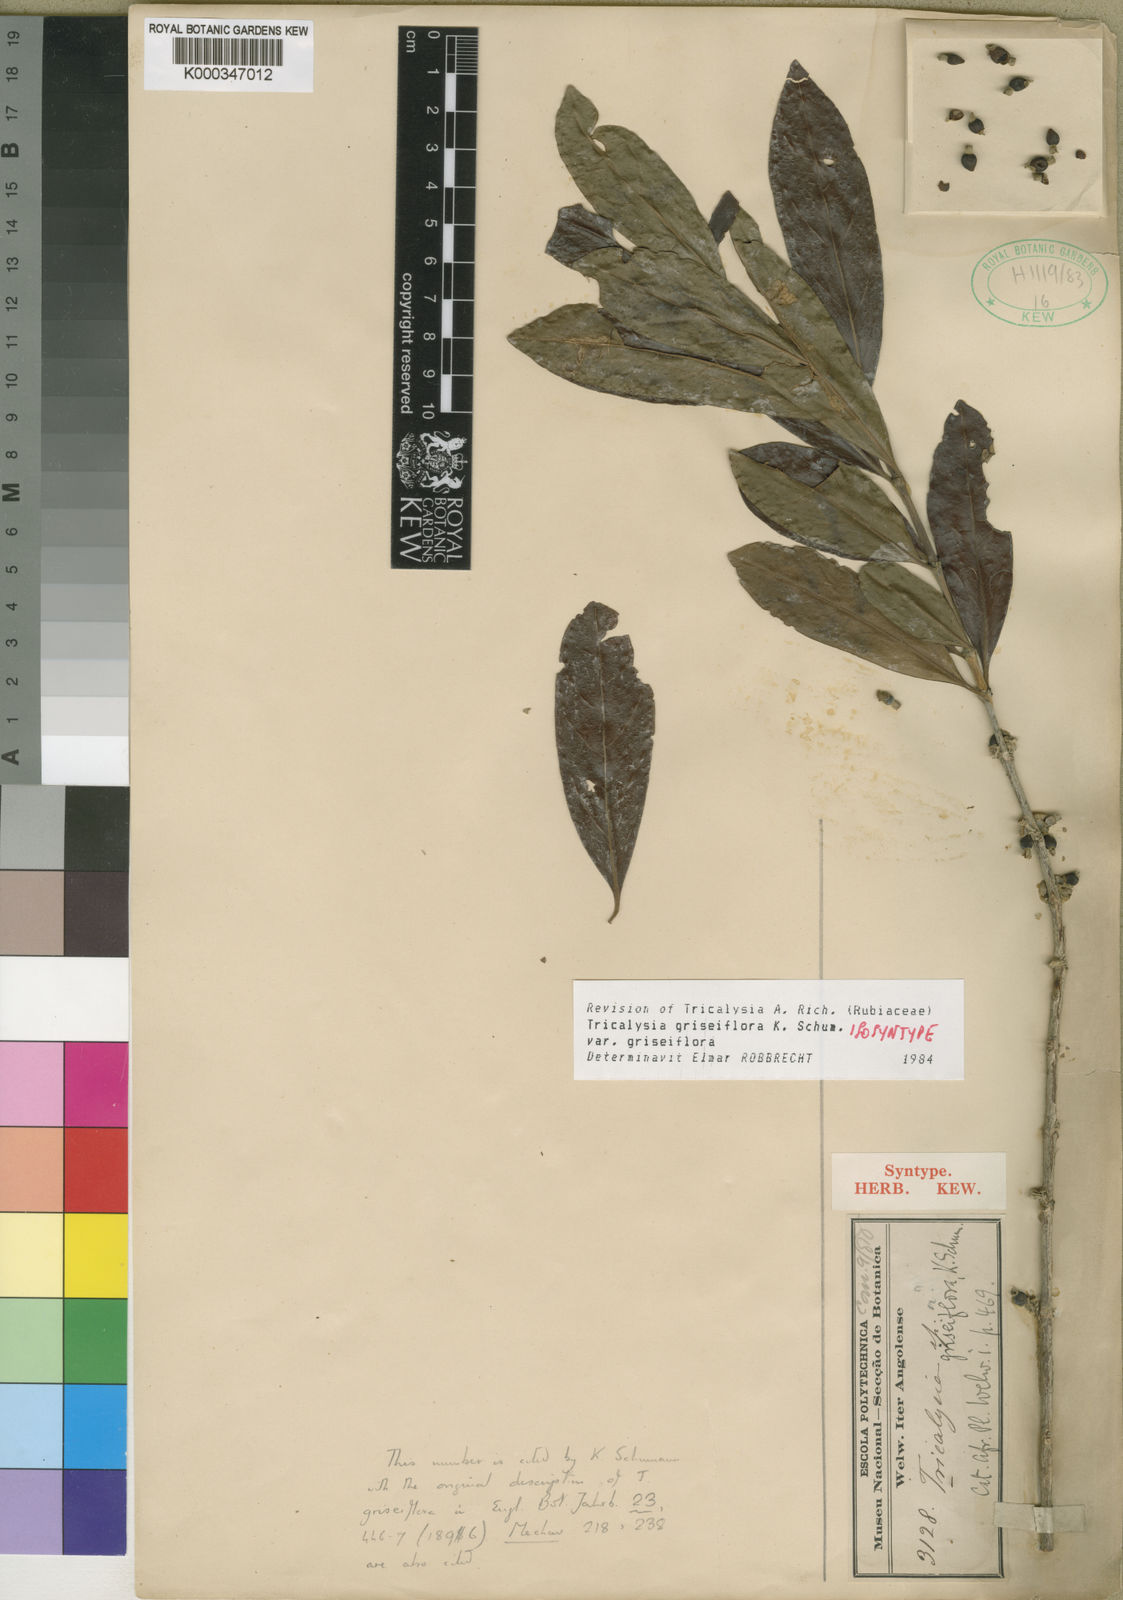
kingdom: Plantae
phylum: Tracheophyta
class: Magnoliopsida
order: Gentianales
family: Rubiaceae
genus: Tricalysia
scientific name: Tricalysia griseiflora
